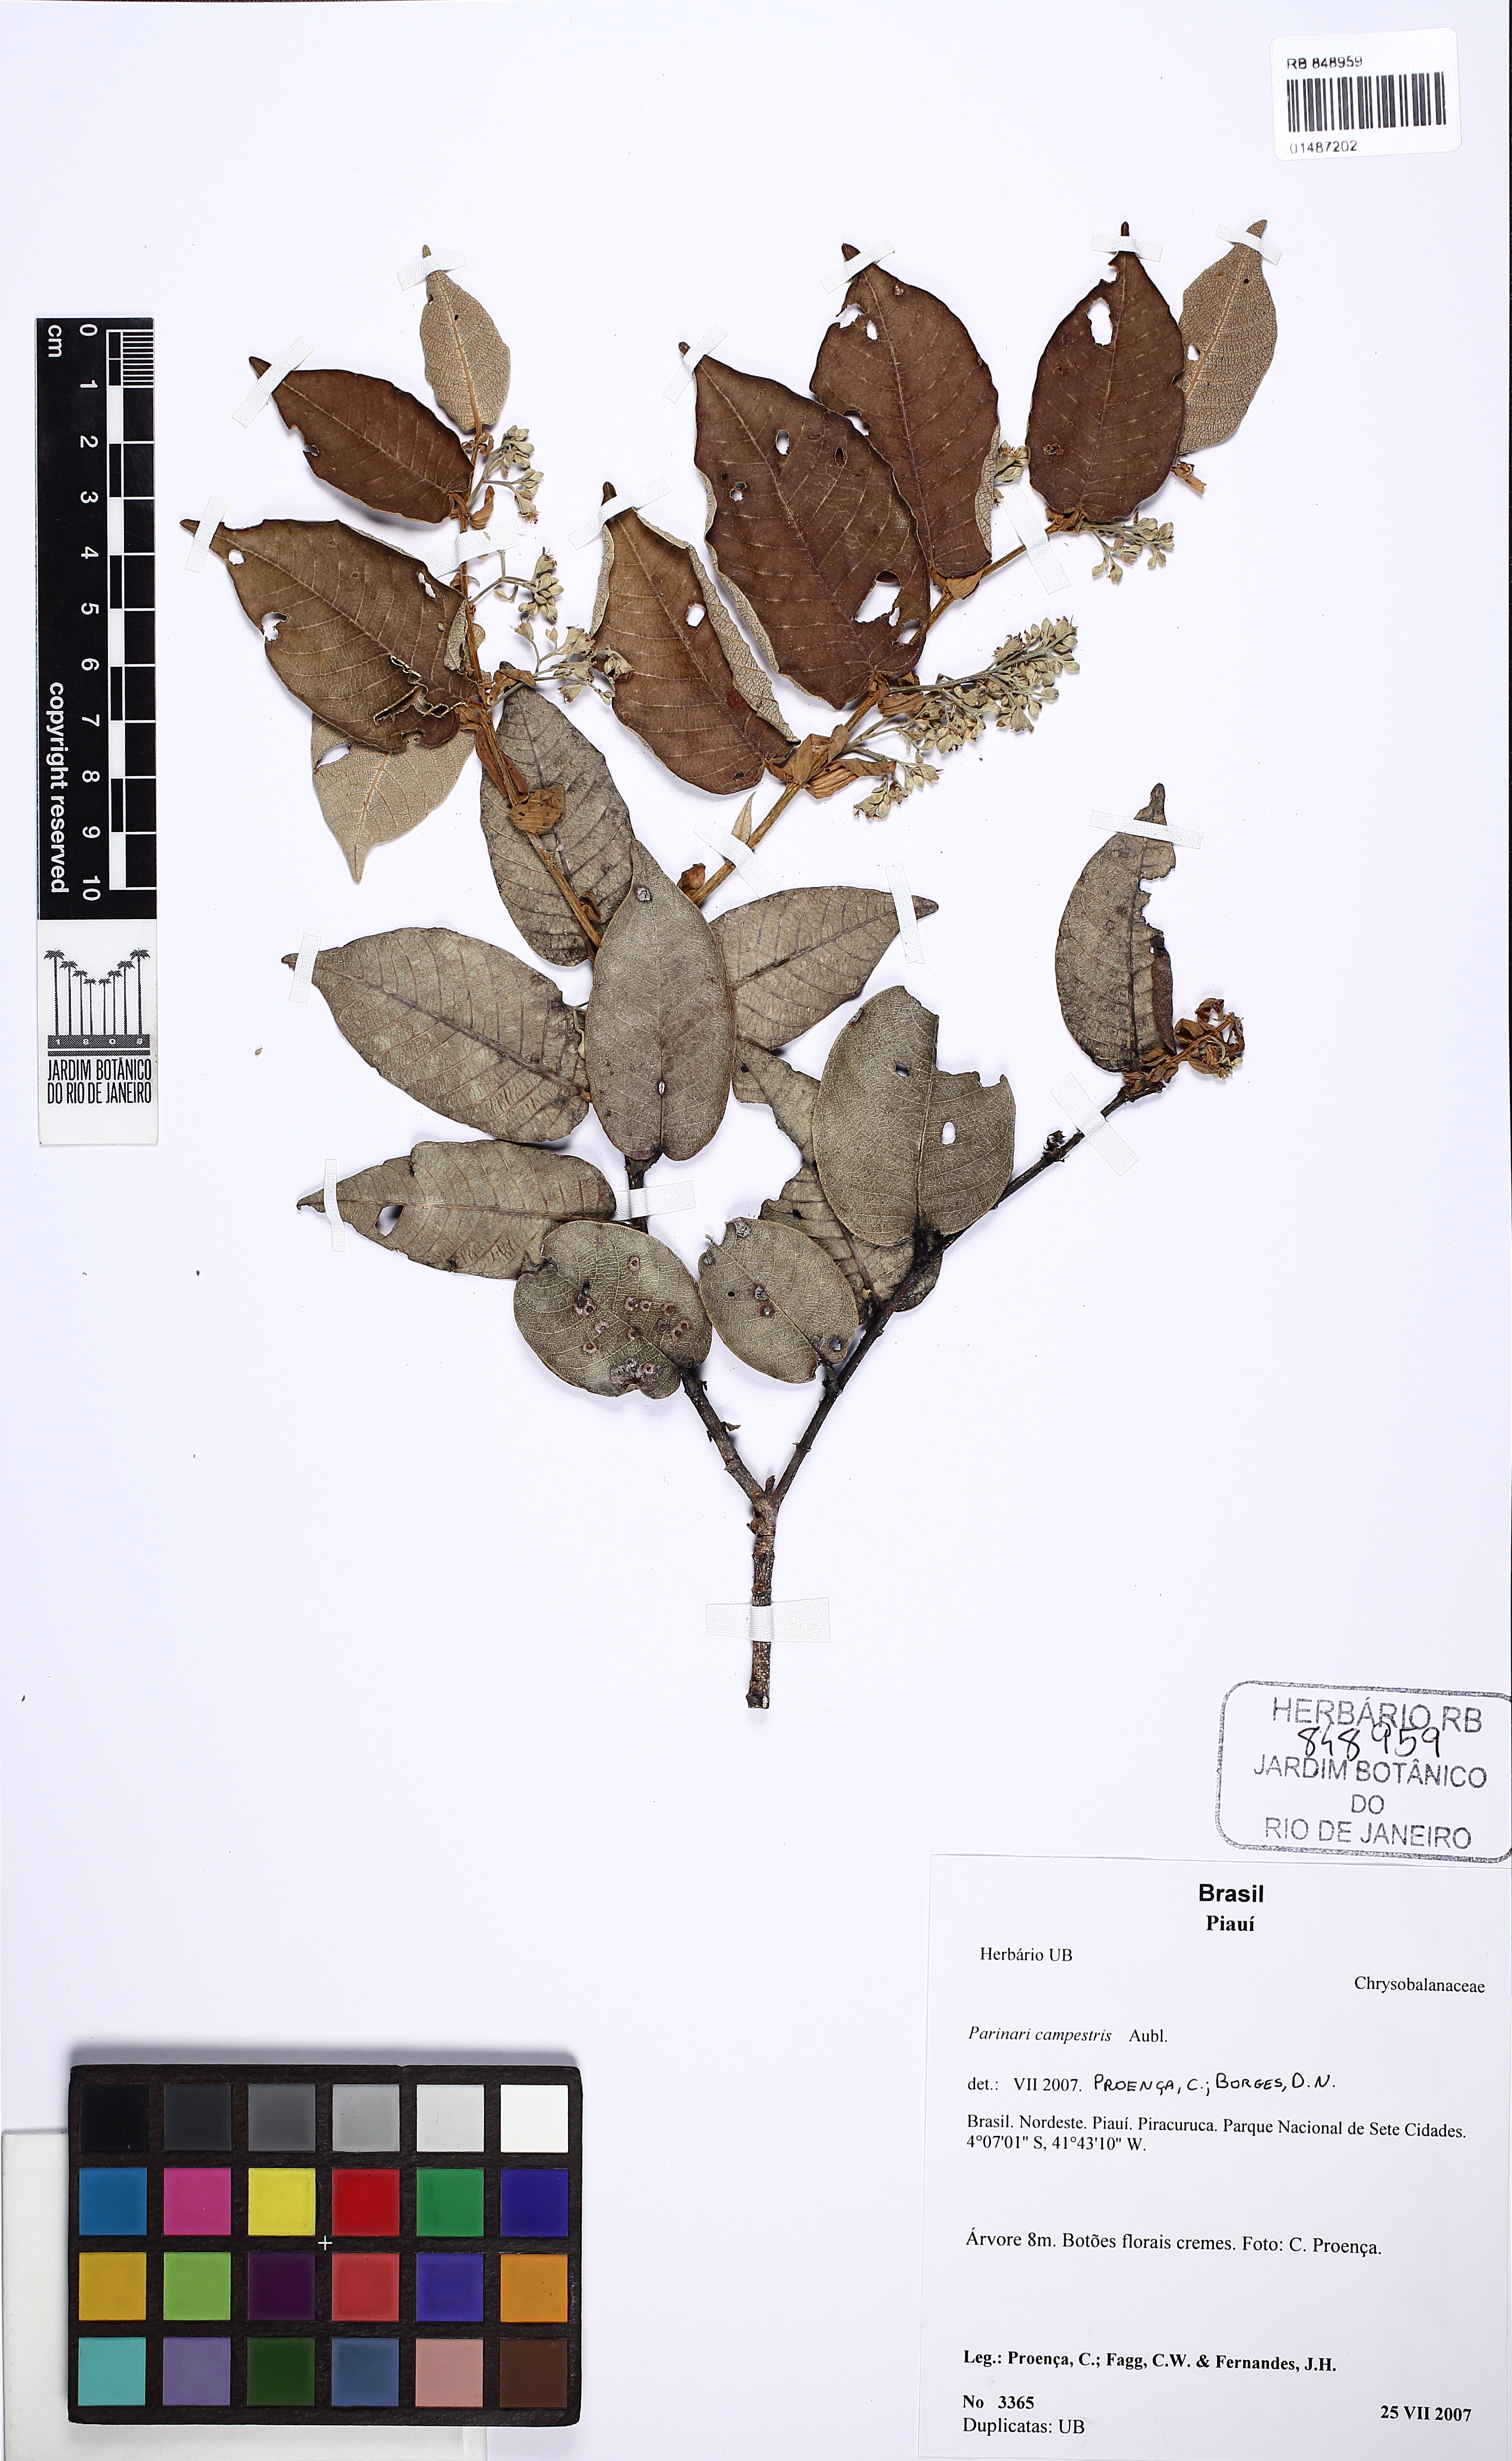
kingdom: Plantae
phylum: Tracheophyta
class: Magnoliopsida
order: Malpighiales
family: Chrysobalanaceae
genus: Parinari
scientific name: Parinari campestris
